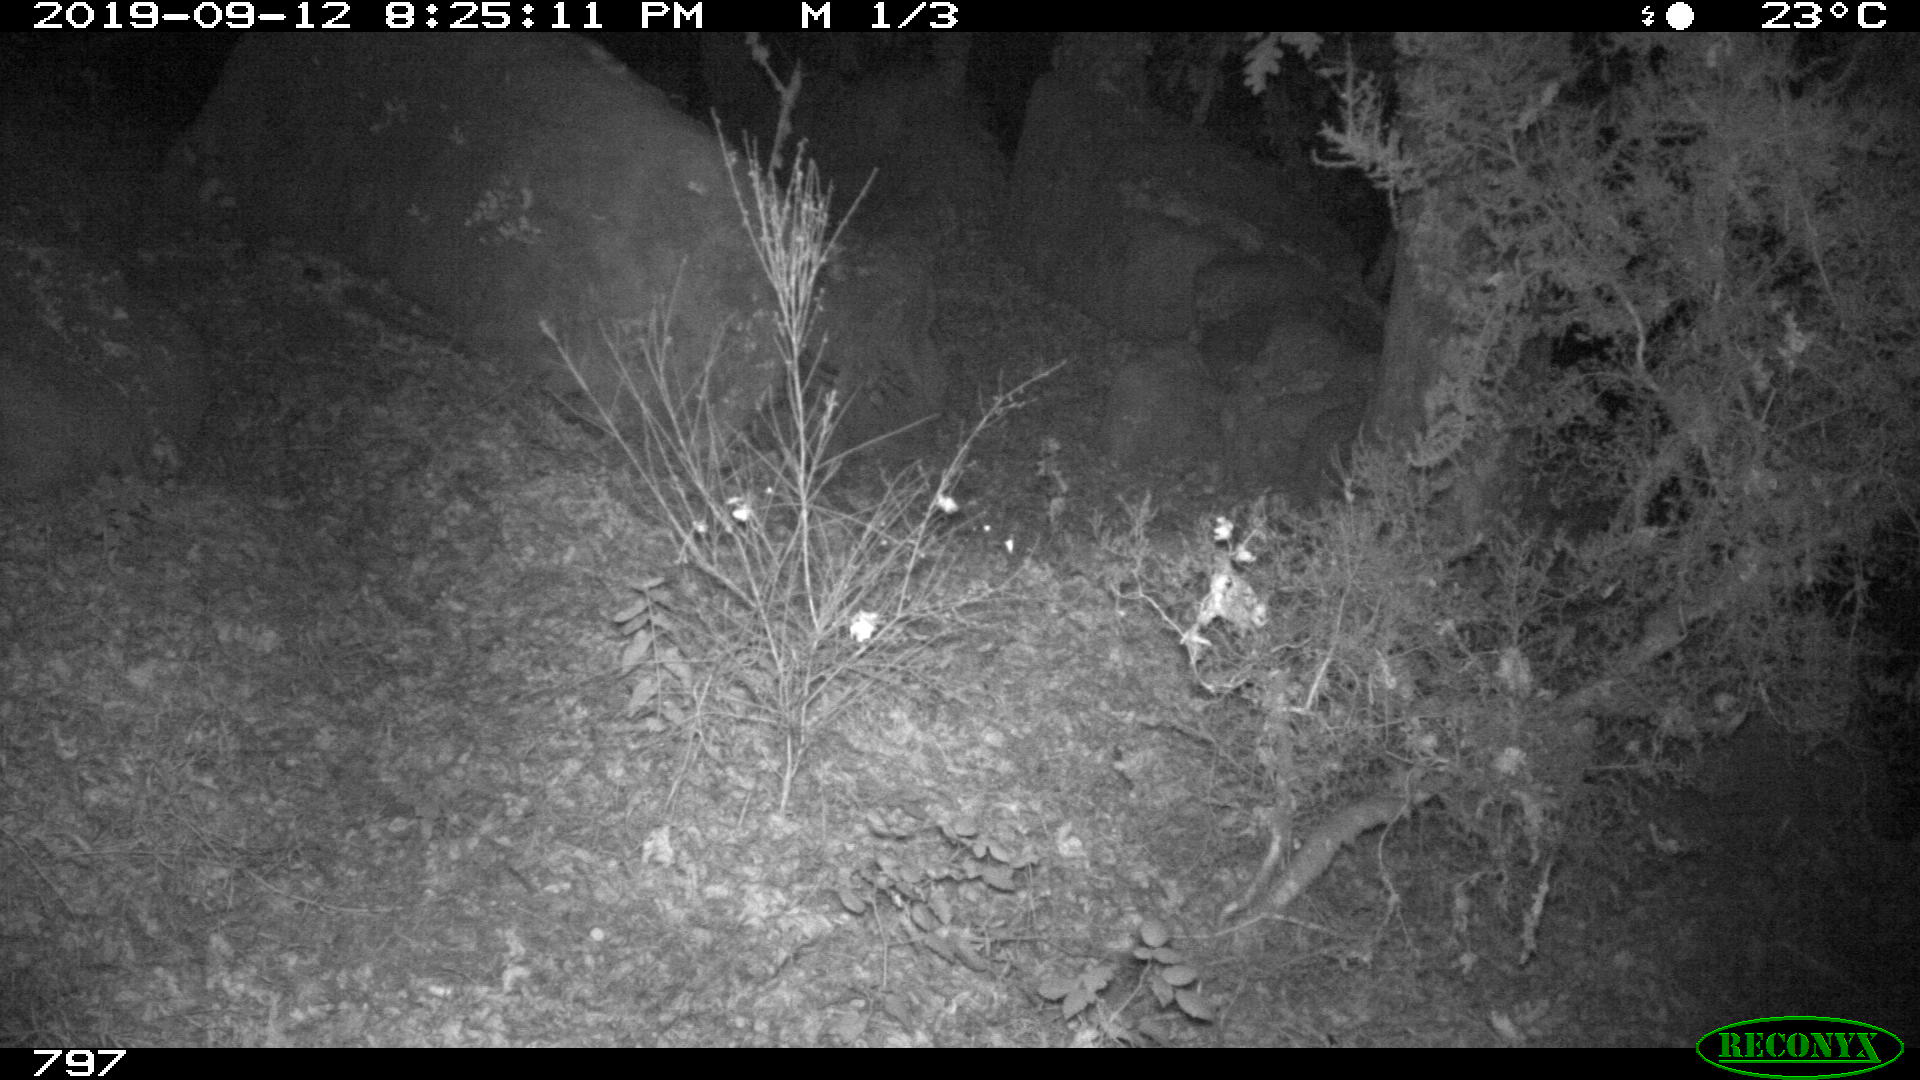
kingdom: Animalia
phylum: Chordata
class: Mammalia
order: Artiodactyla
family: Suidae
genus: Sus
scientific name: Sus scrofa
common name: Wild boar
